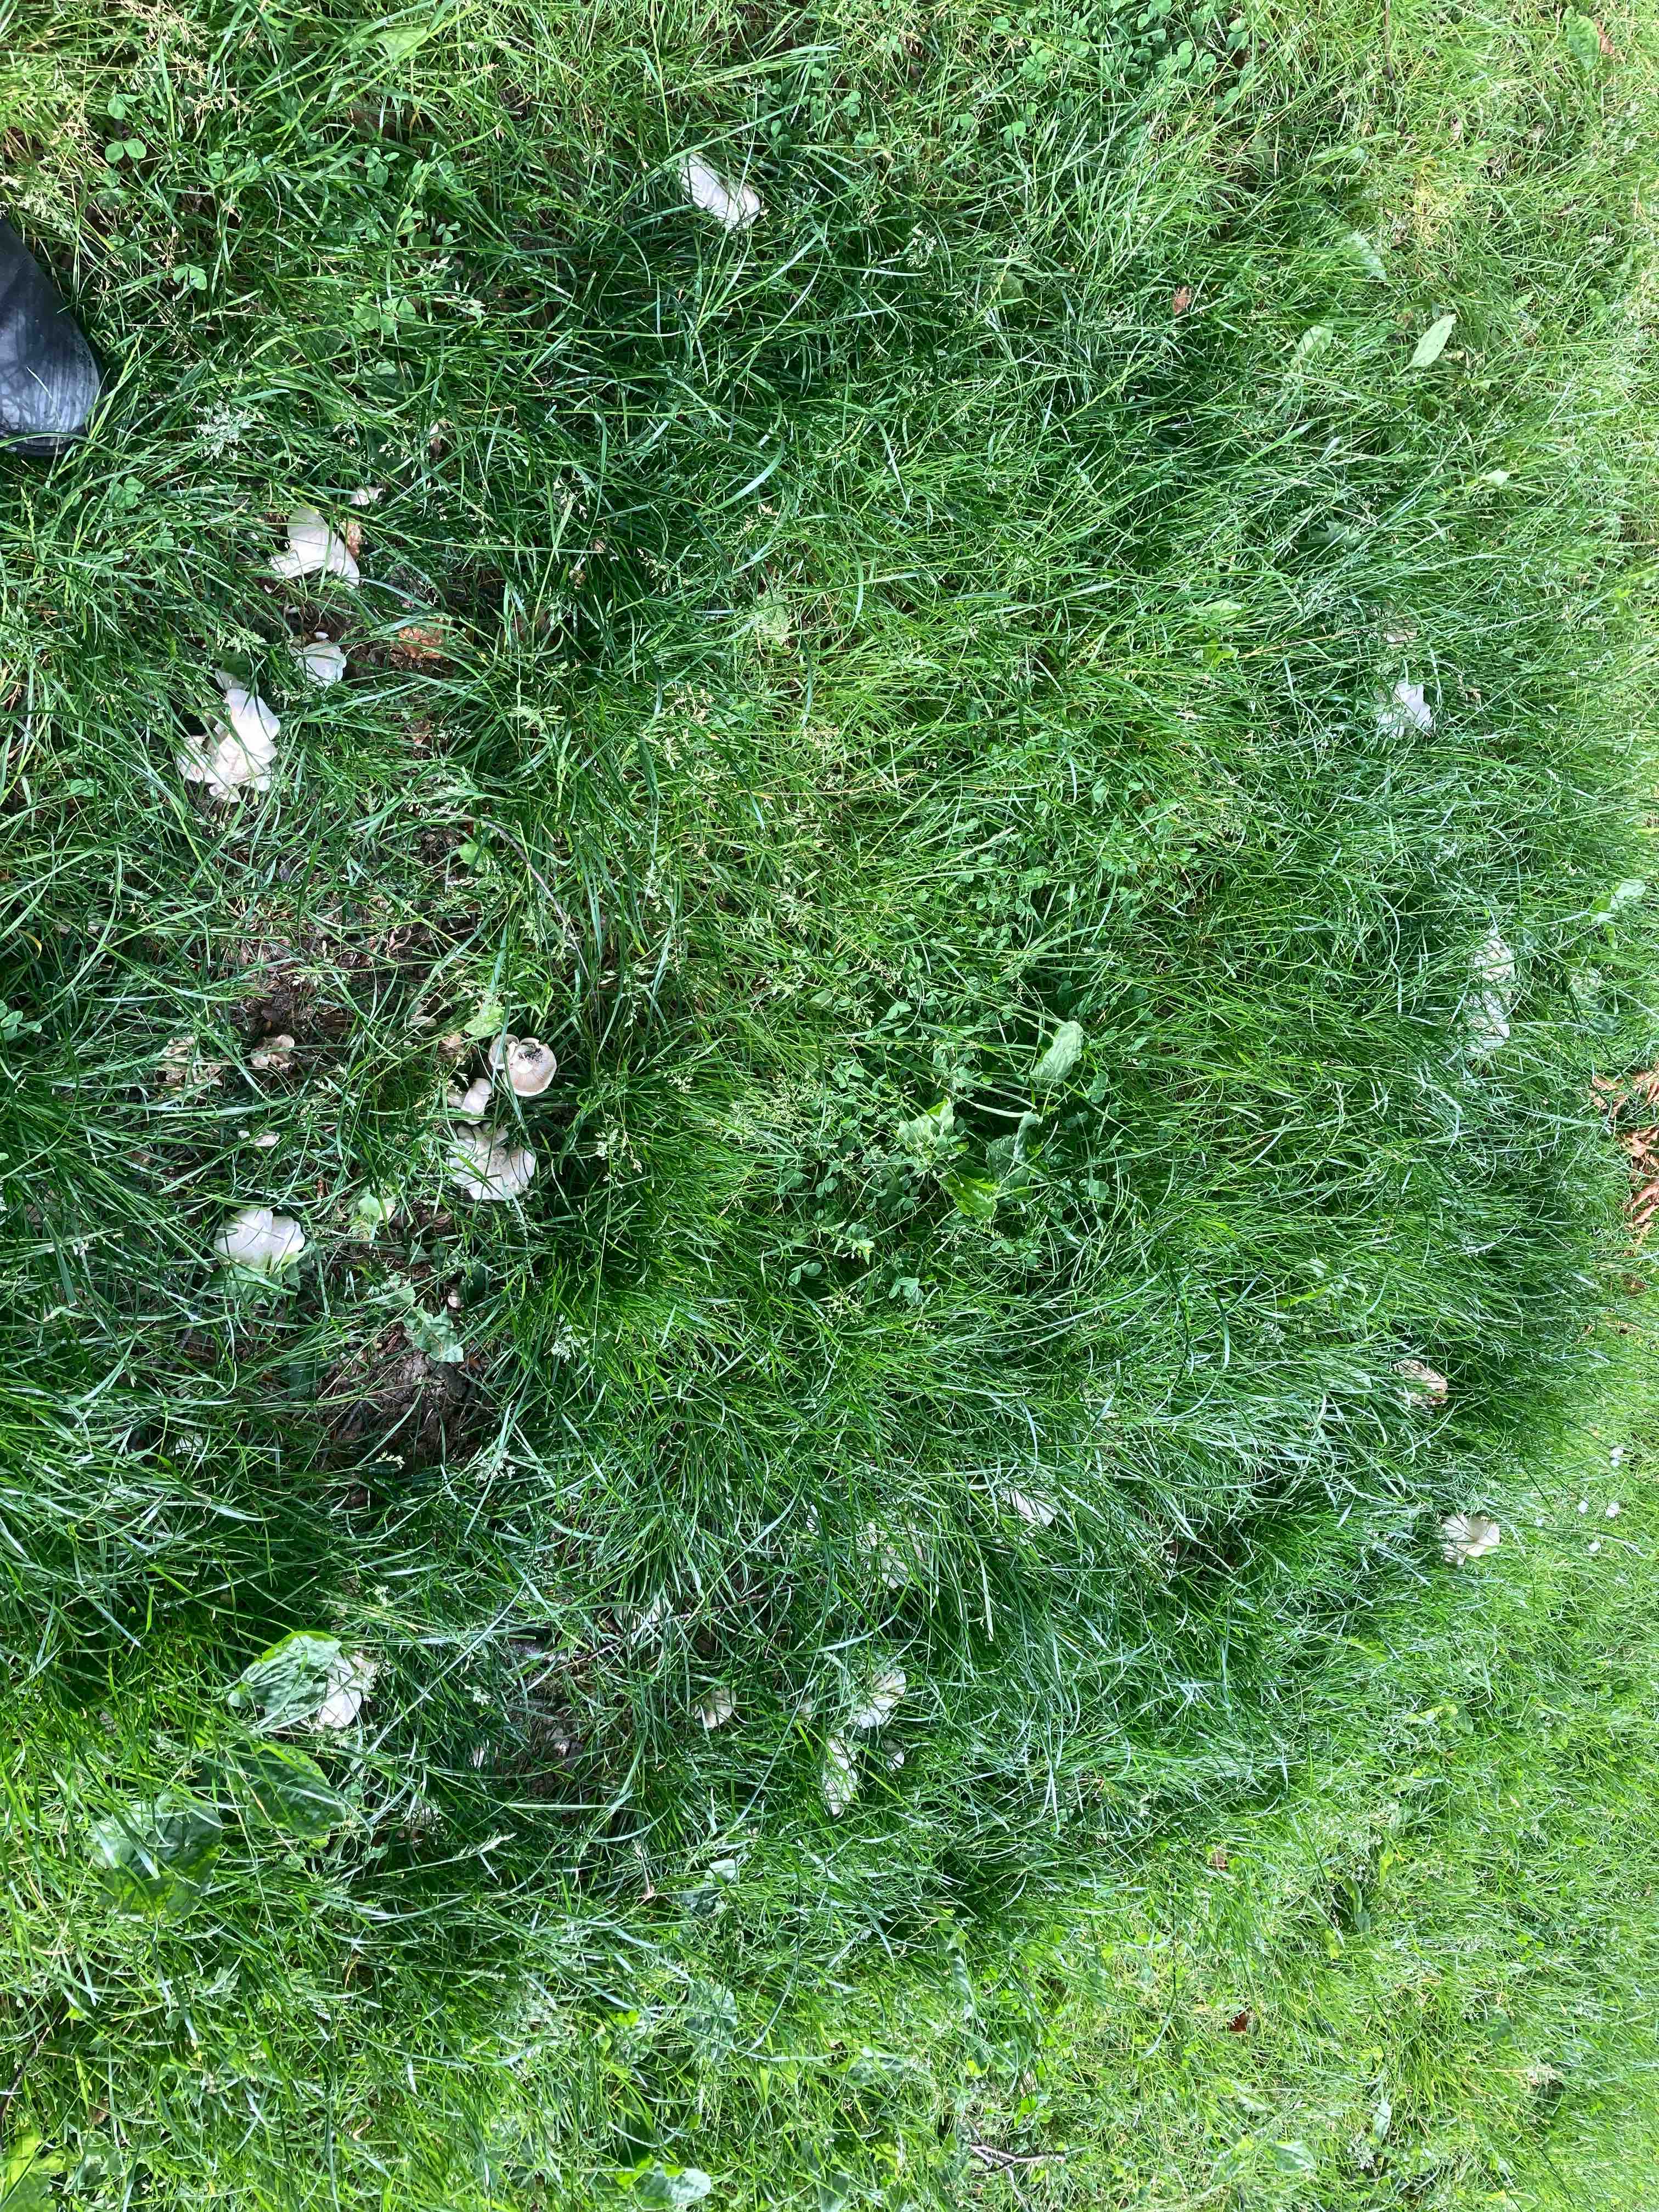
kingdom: Fungi
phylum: Basidiomycota
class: Agaricomycetes
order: Agaricales
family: Lyophyllaceae
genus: Calocybe
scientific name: Calocybe gambosa
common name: vårmusseron
